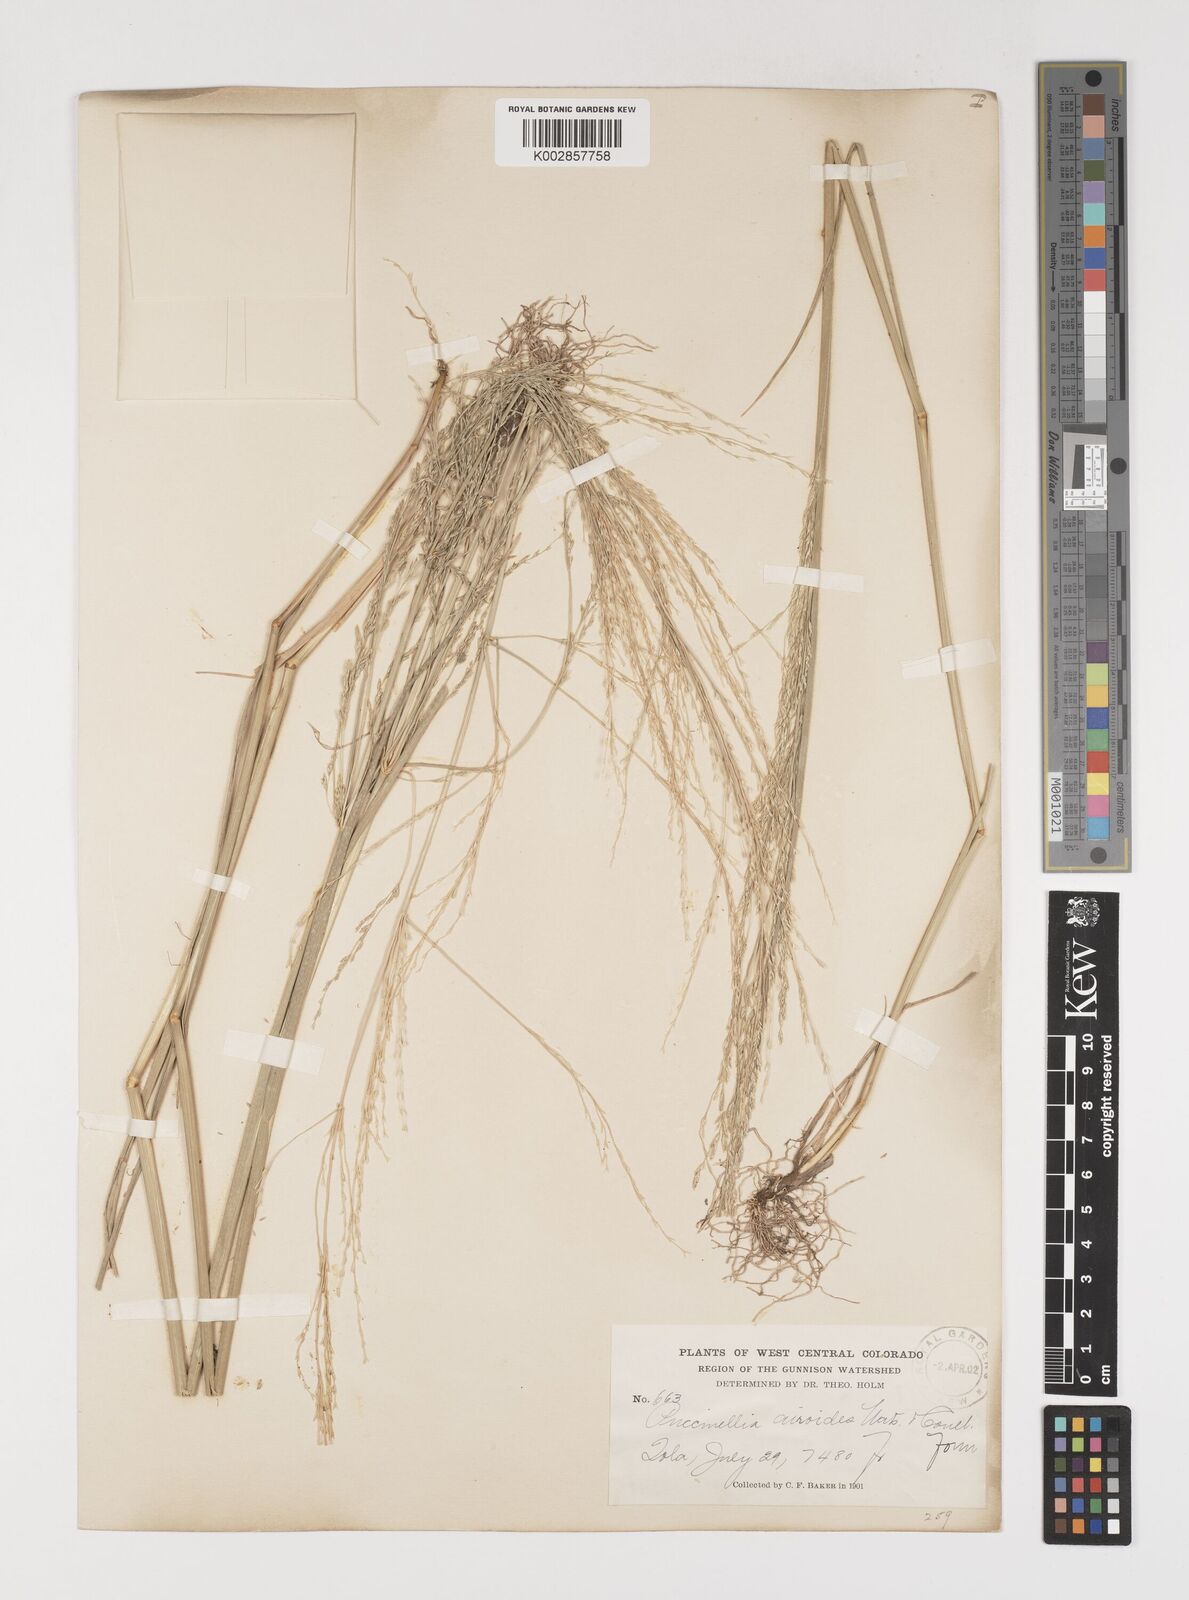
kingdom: Plantae
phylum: Tracheophyta
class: Liliopsida
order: Poales
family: Poaceae
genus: Puccinellia
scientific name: Puccinellia nuttalliana
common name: Nuttall's alkali grass
